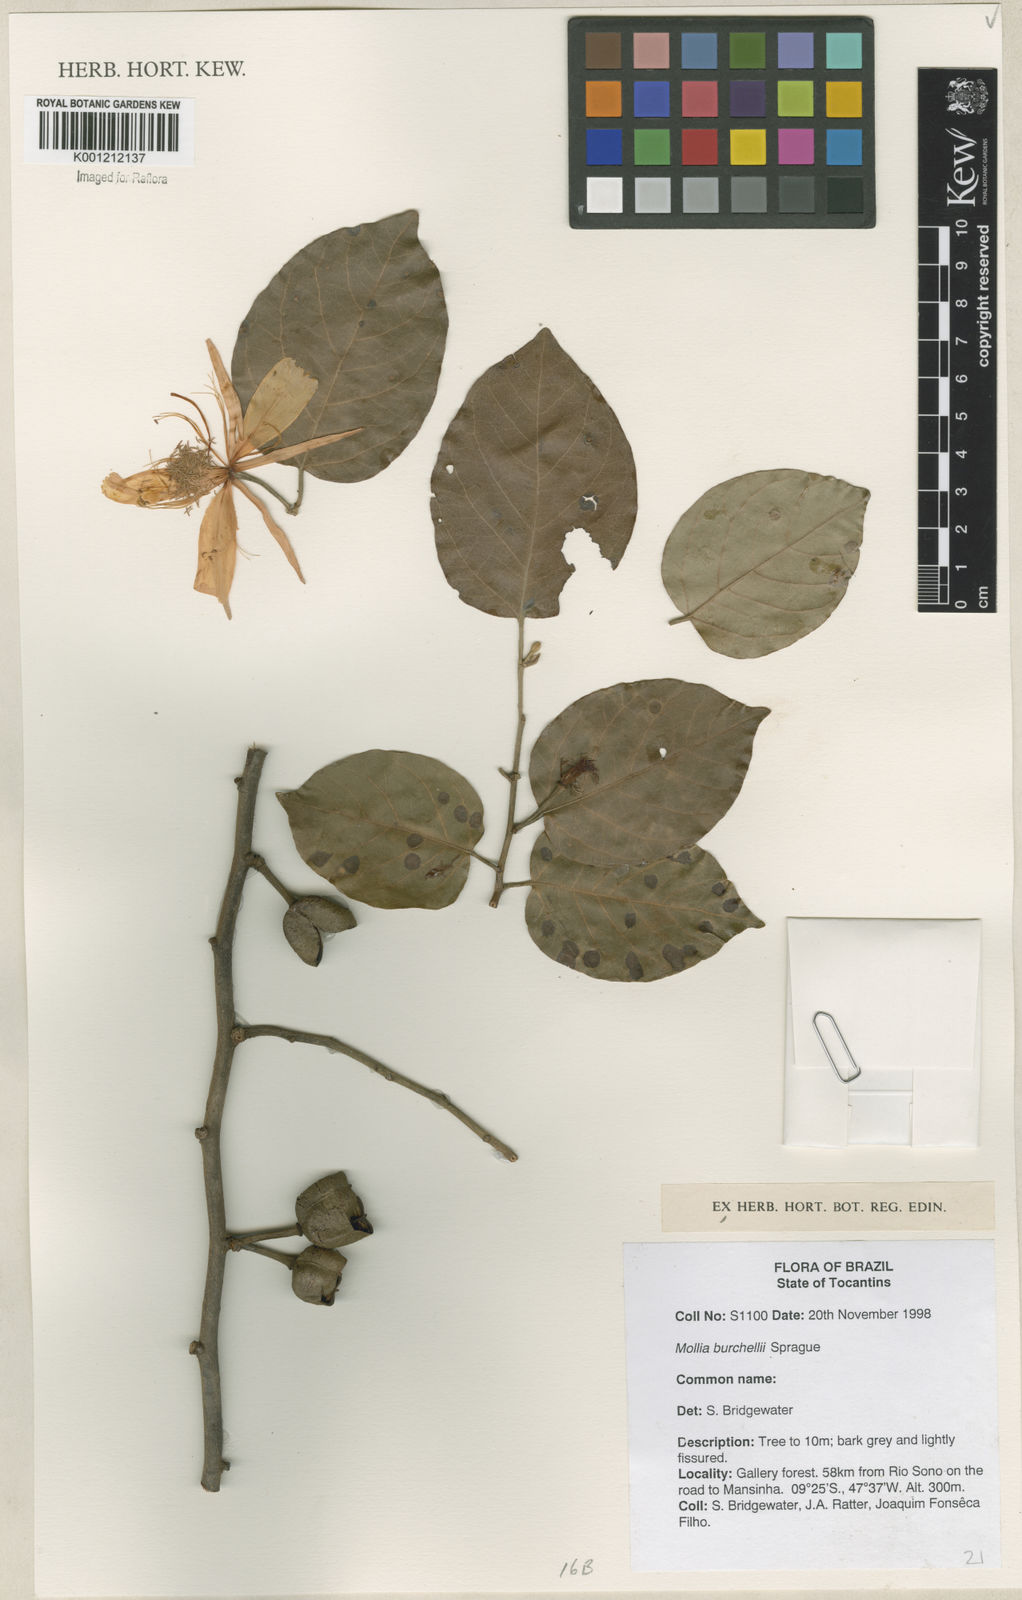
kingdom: Plantae
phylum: Tracheophyta
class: Magnoliopsida
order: Malvales
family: Malvaceae
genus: Mollia
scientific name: Mollia burchellii
